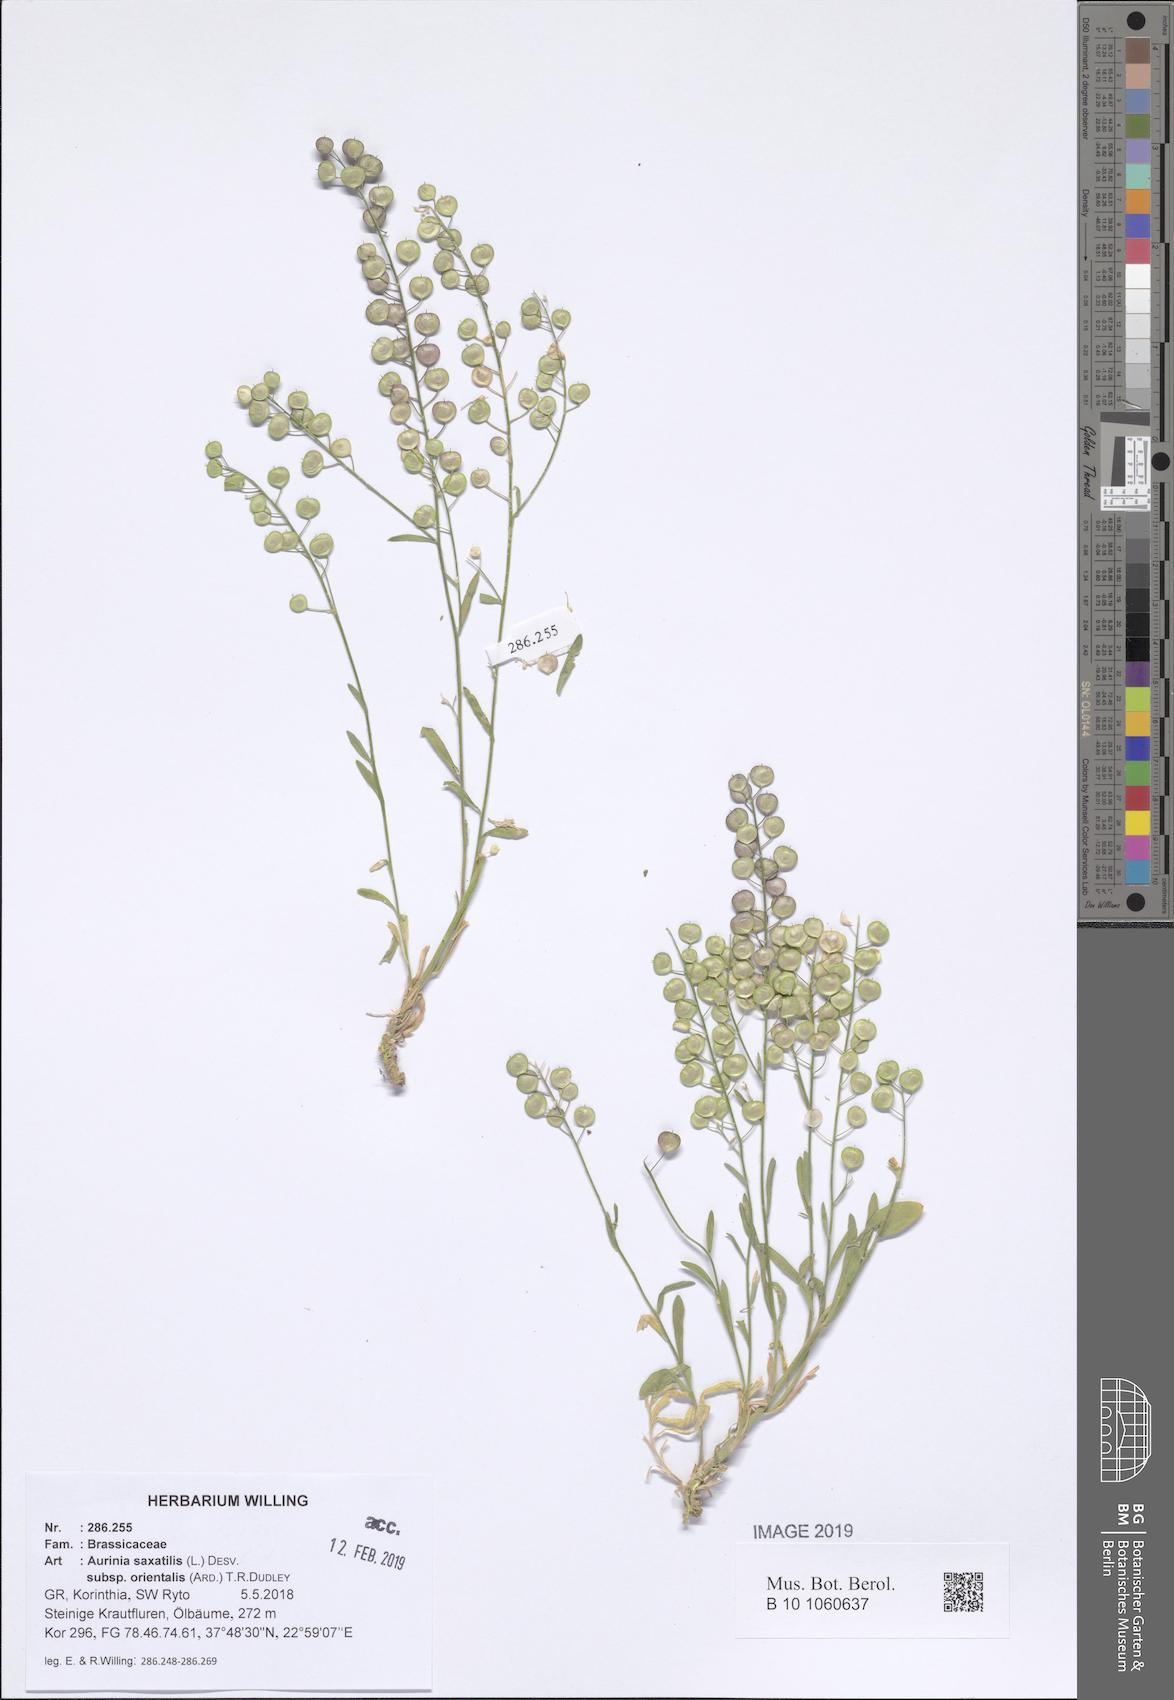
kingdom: Plantae
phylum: Tracheophyta
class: Magnoliopsida
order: Brassicales
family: Brassicaceae
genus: Aurinia
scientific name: Aurinia saxatilis
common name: Golden-tuft alyssum
